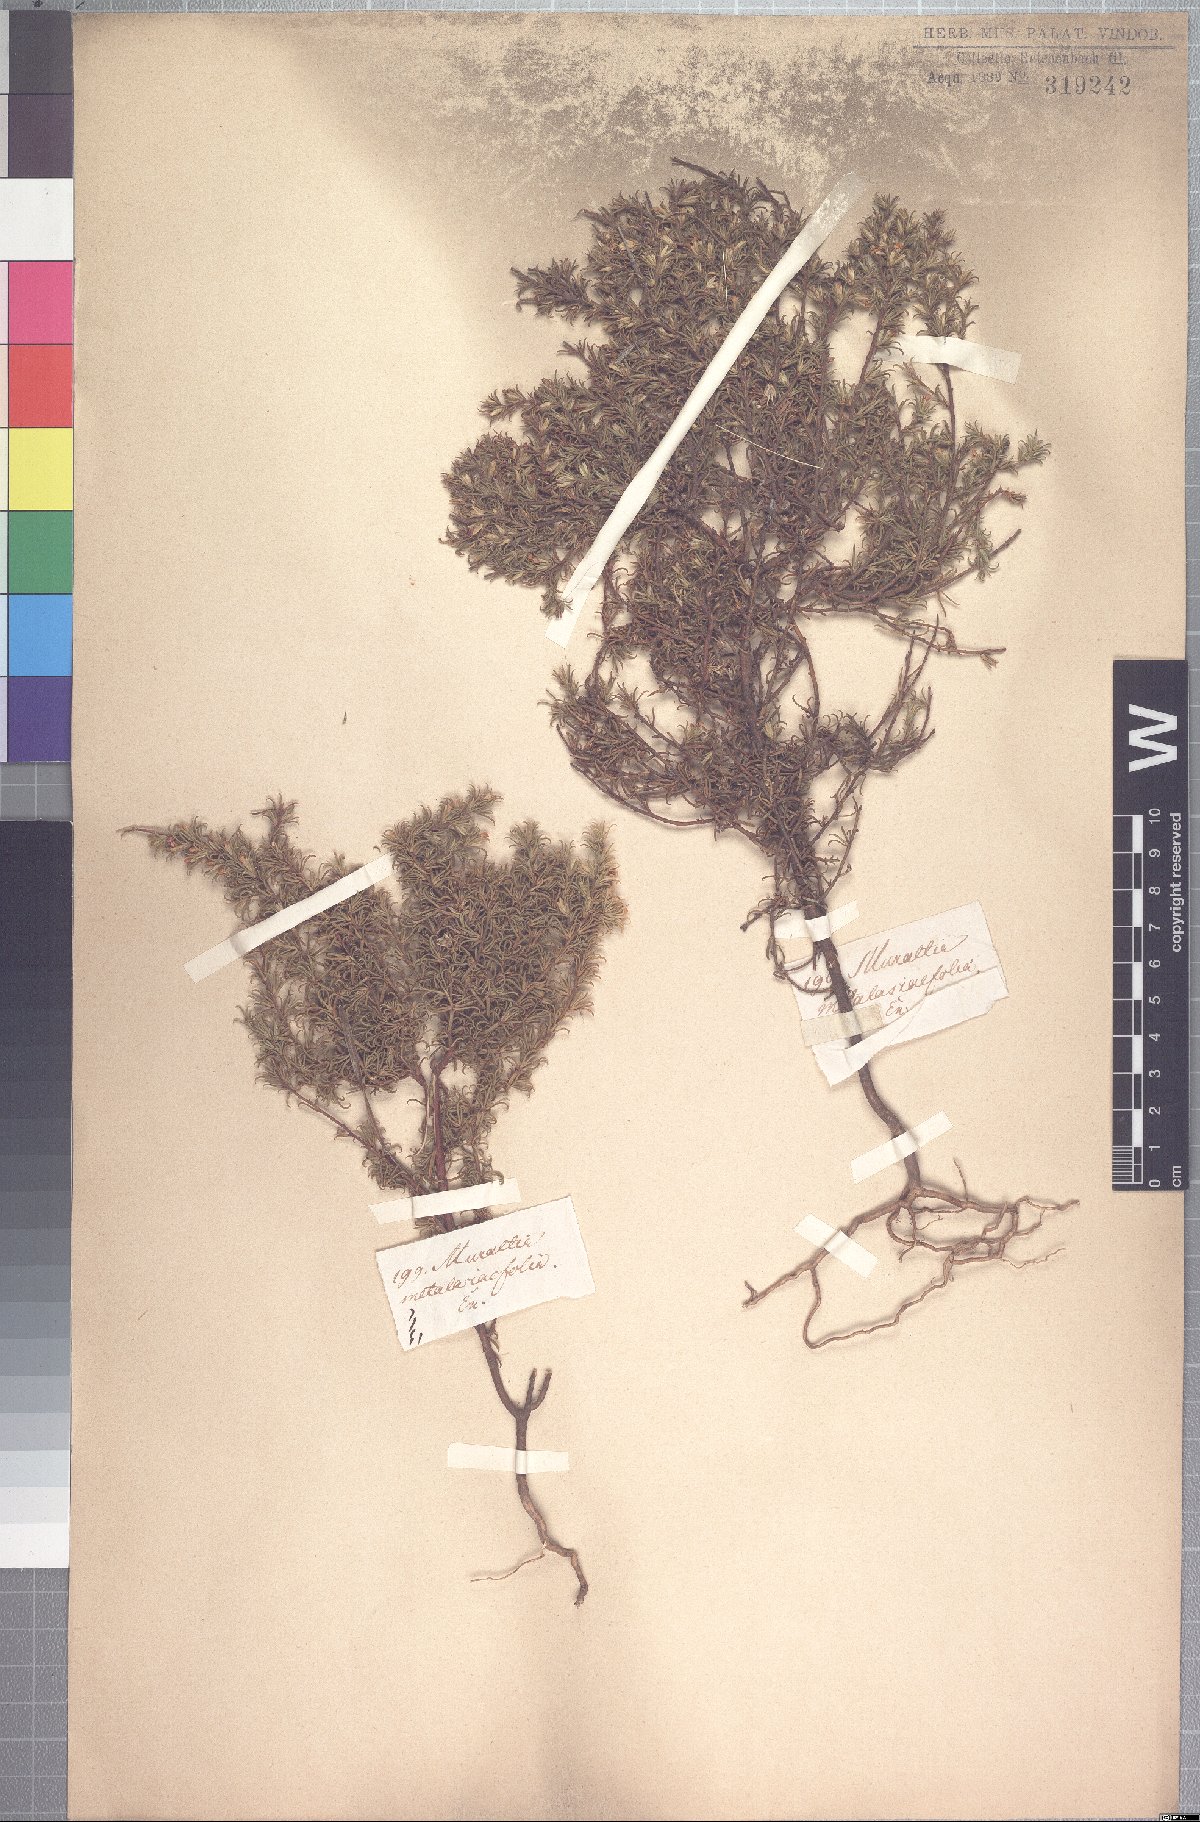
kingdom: Plantae
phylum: Tracheophyta
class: Magnoliopsida
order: Fabales
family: Polygalaceae
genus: Muraltia
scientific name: Muraltia rubeacea
